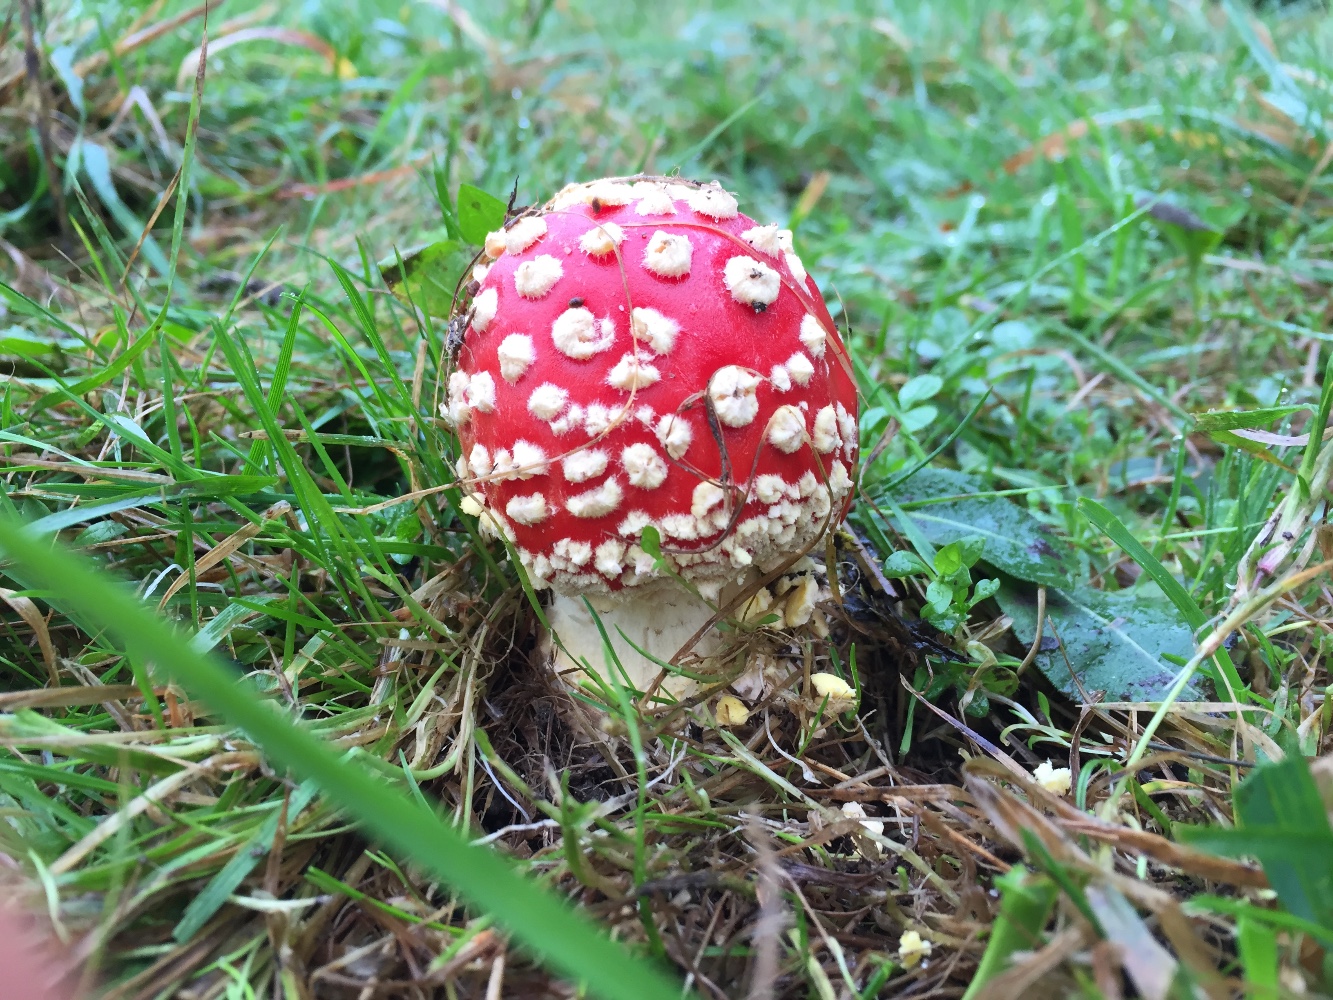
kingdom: Fungi
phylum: Basidiomycota
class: Agaricomycetes
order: Agaricales
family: Amanitaceae
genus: Amanita
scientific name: Amanita muscaria
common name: rød fluesvamp
